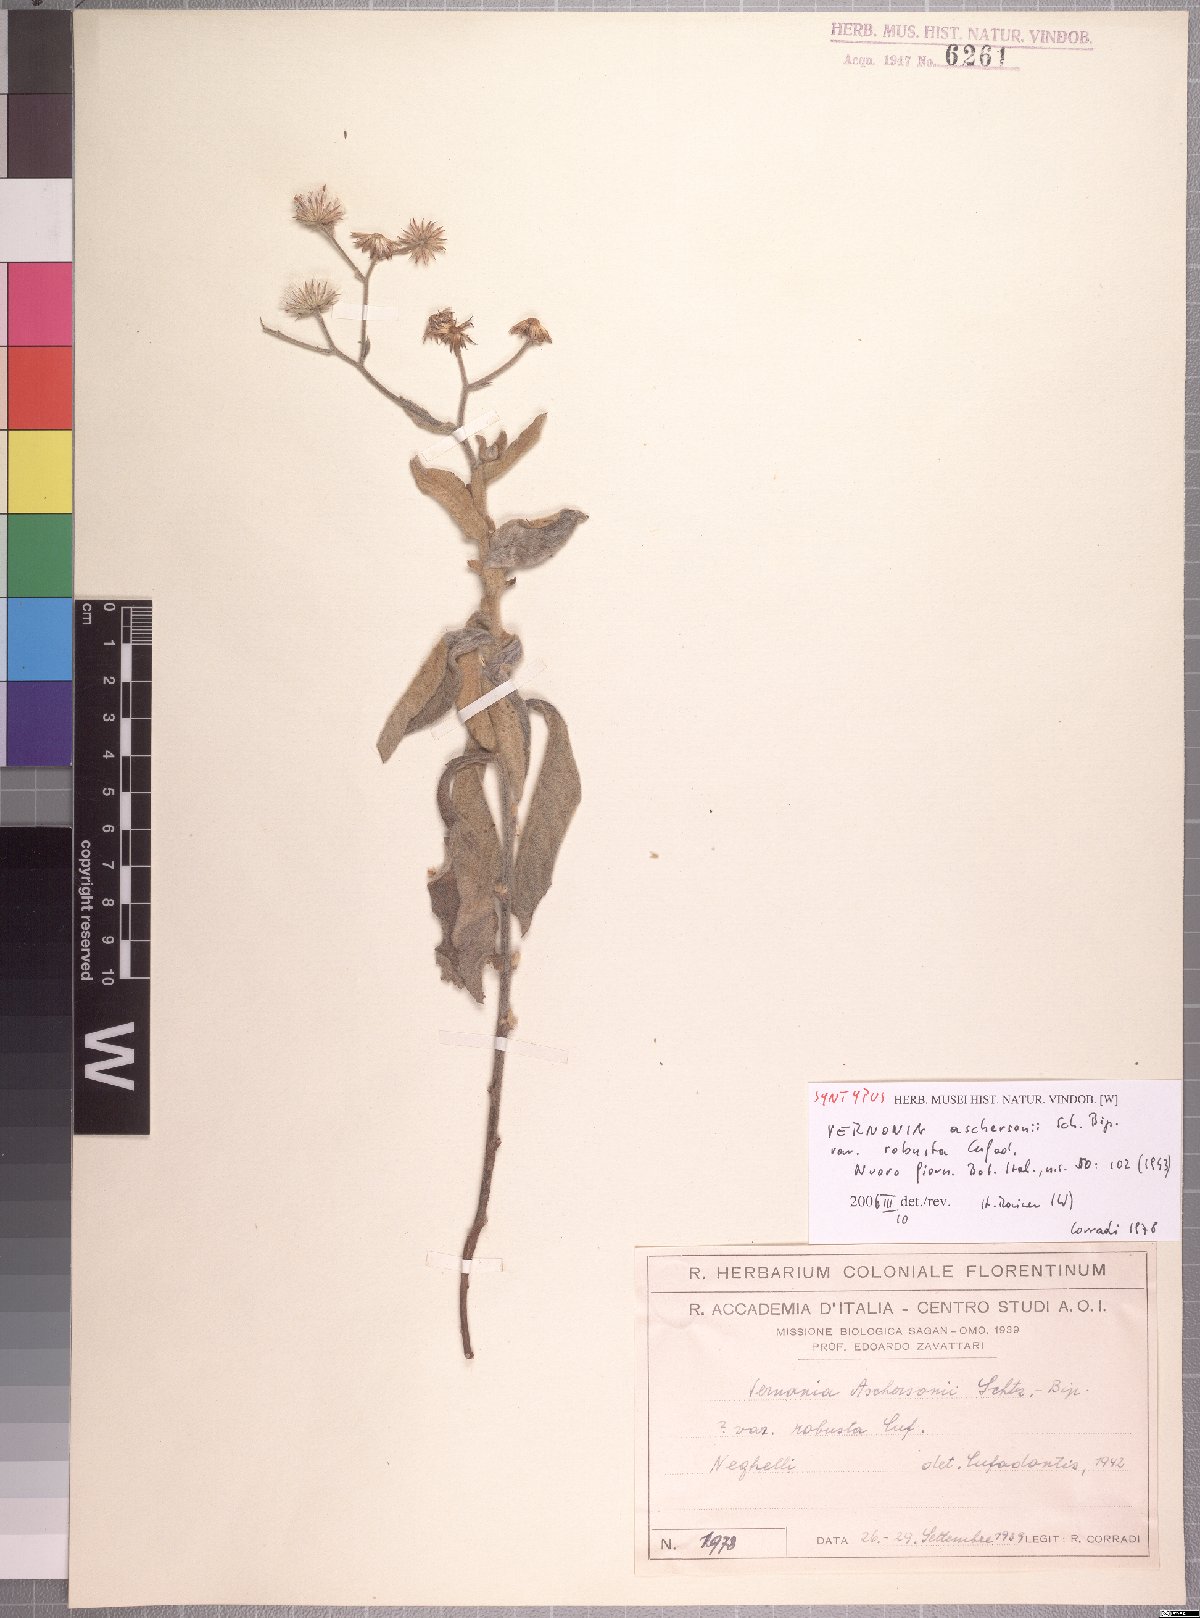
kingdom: Plantae
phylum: Tracheophyta
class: Magnoliopsida
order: Asterales
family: Asteraceae
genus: Vernonia
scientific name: Vernonia popeana
